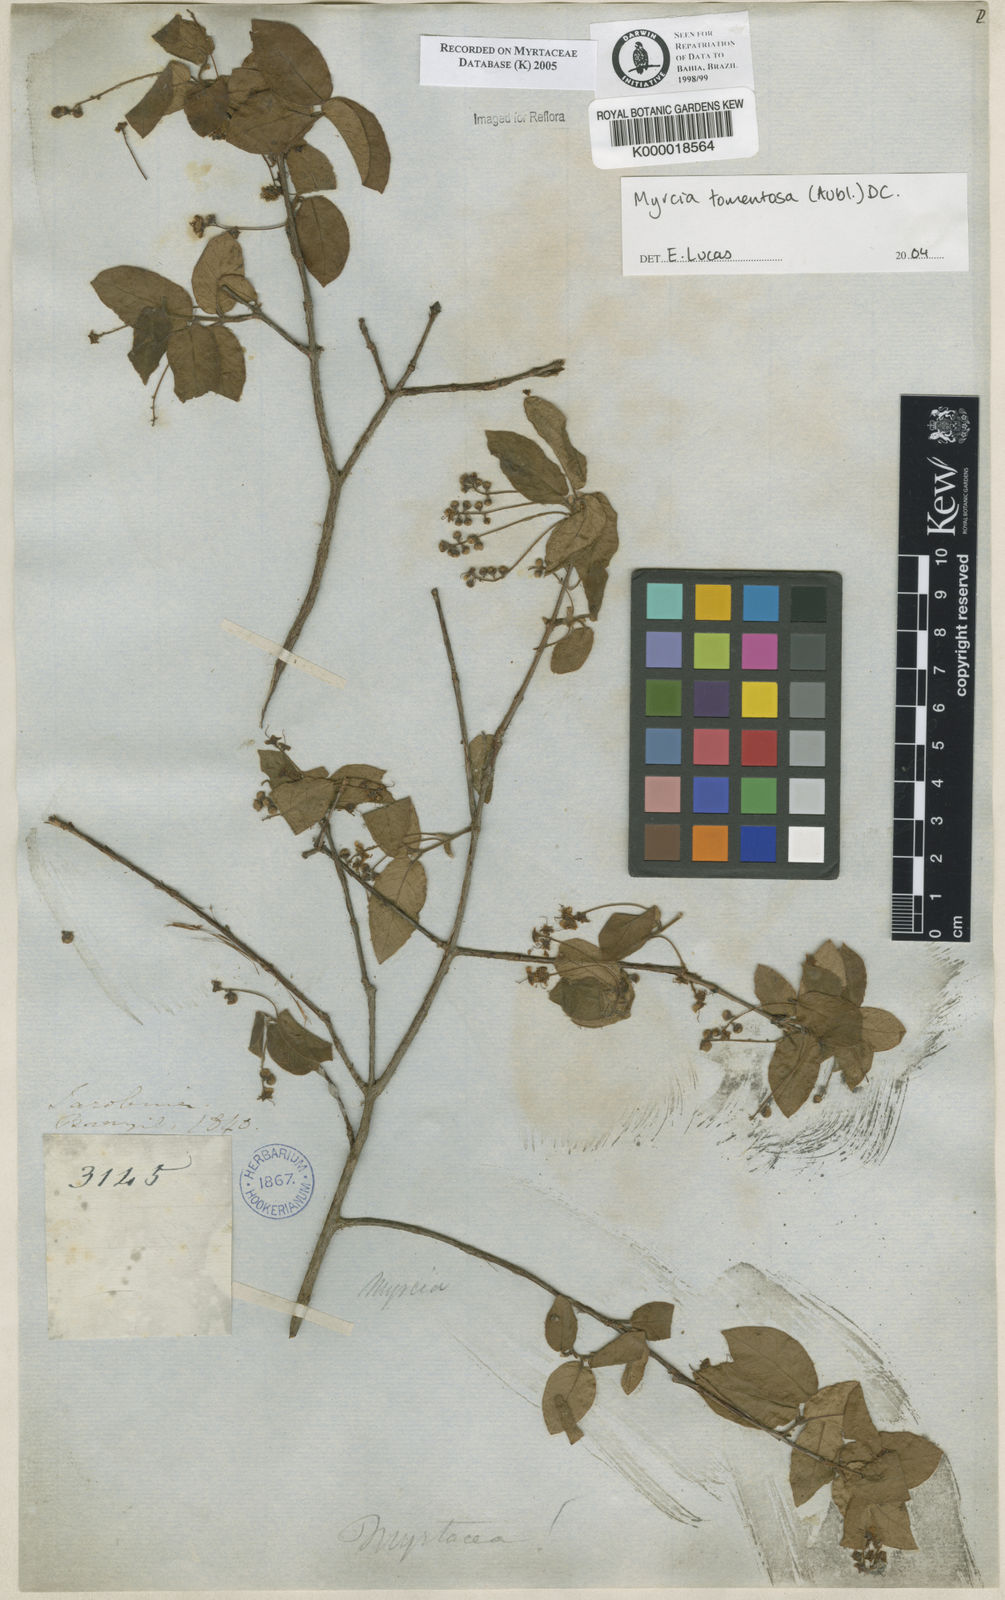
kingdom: Plantae
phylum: Tracheophyta
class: Magnoliopsida
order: Myrtales
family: Myrtaceae
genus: Myrcia
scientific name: Myrcia
